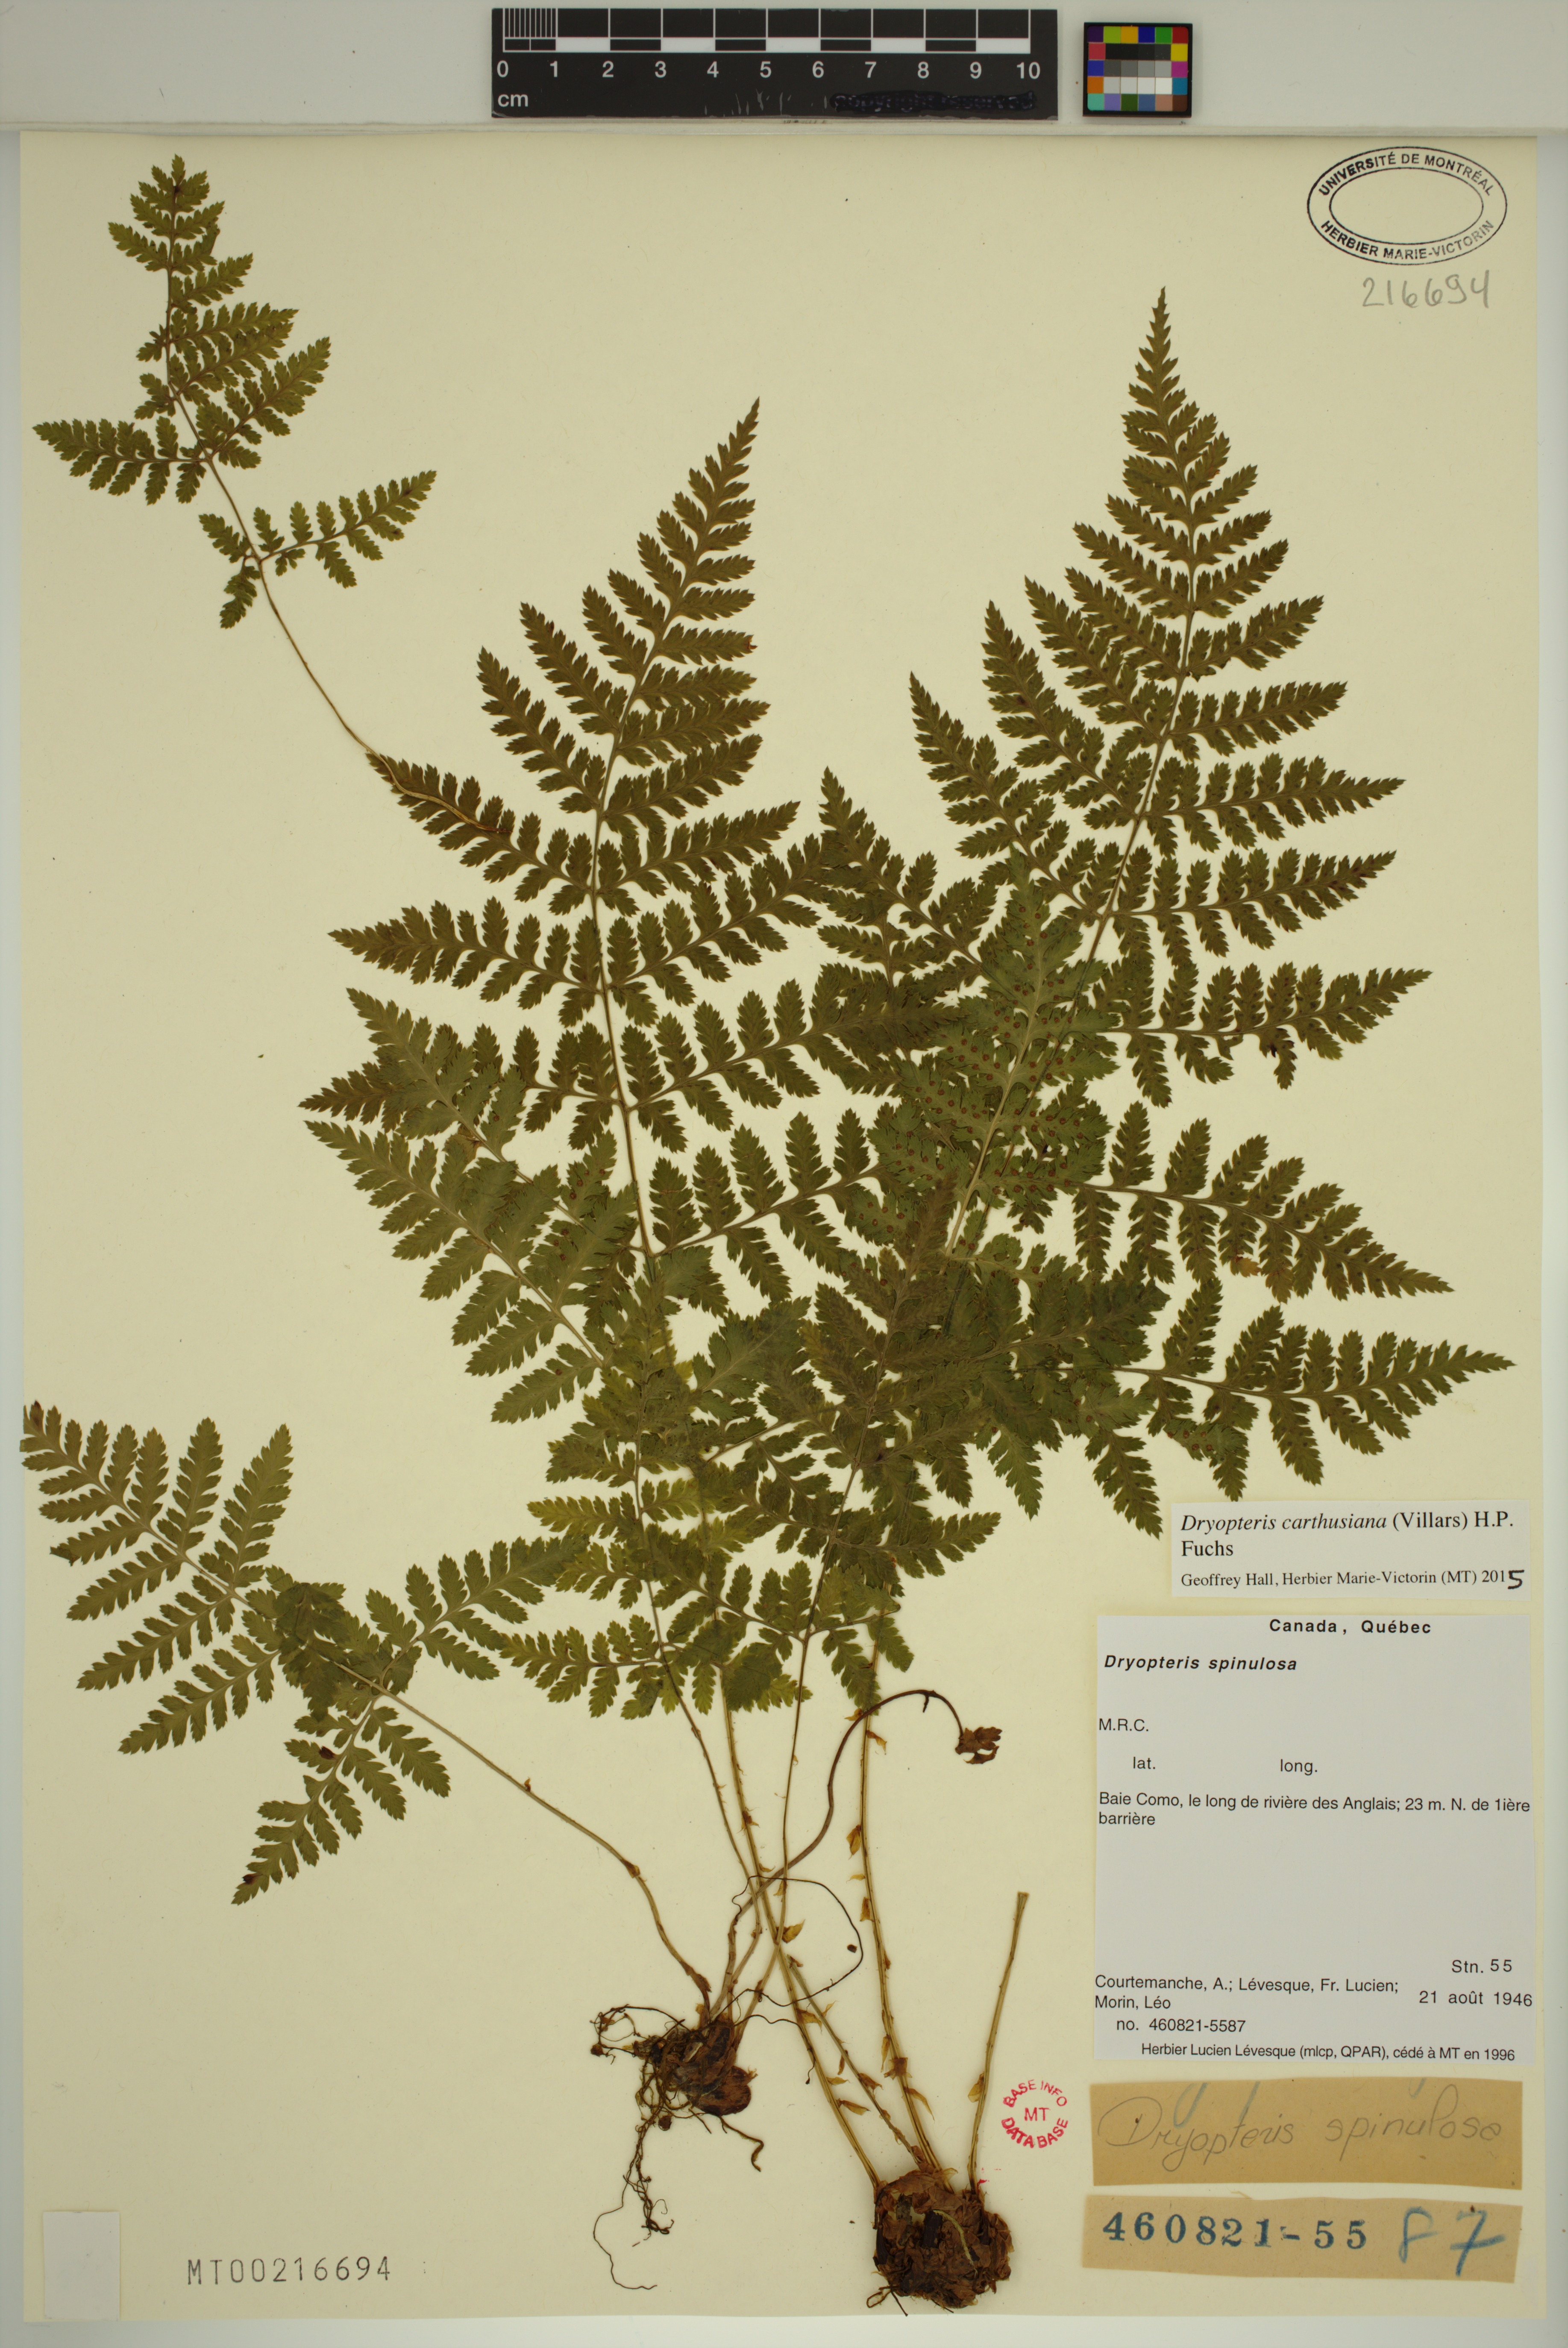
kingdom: Plantae
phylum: Tracheophyta
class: Polypodiopsida
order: Polypodiales
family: Dryopteridaceae
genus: Dryopteris
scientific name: Dryopteris carthusiana
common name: Narrow buckler-fern
